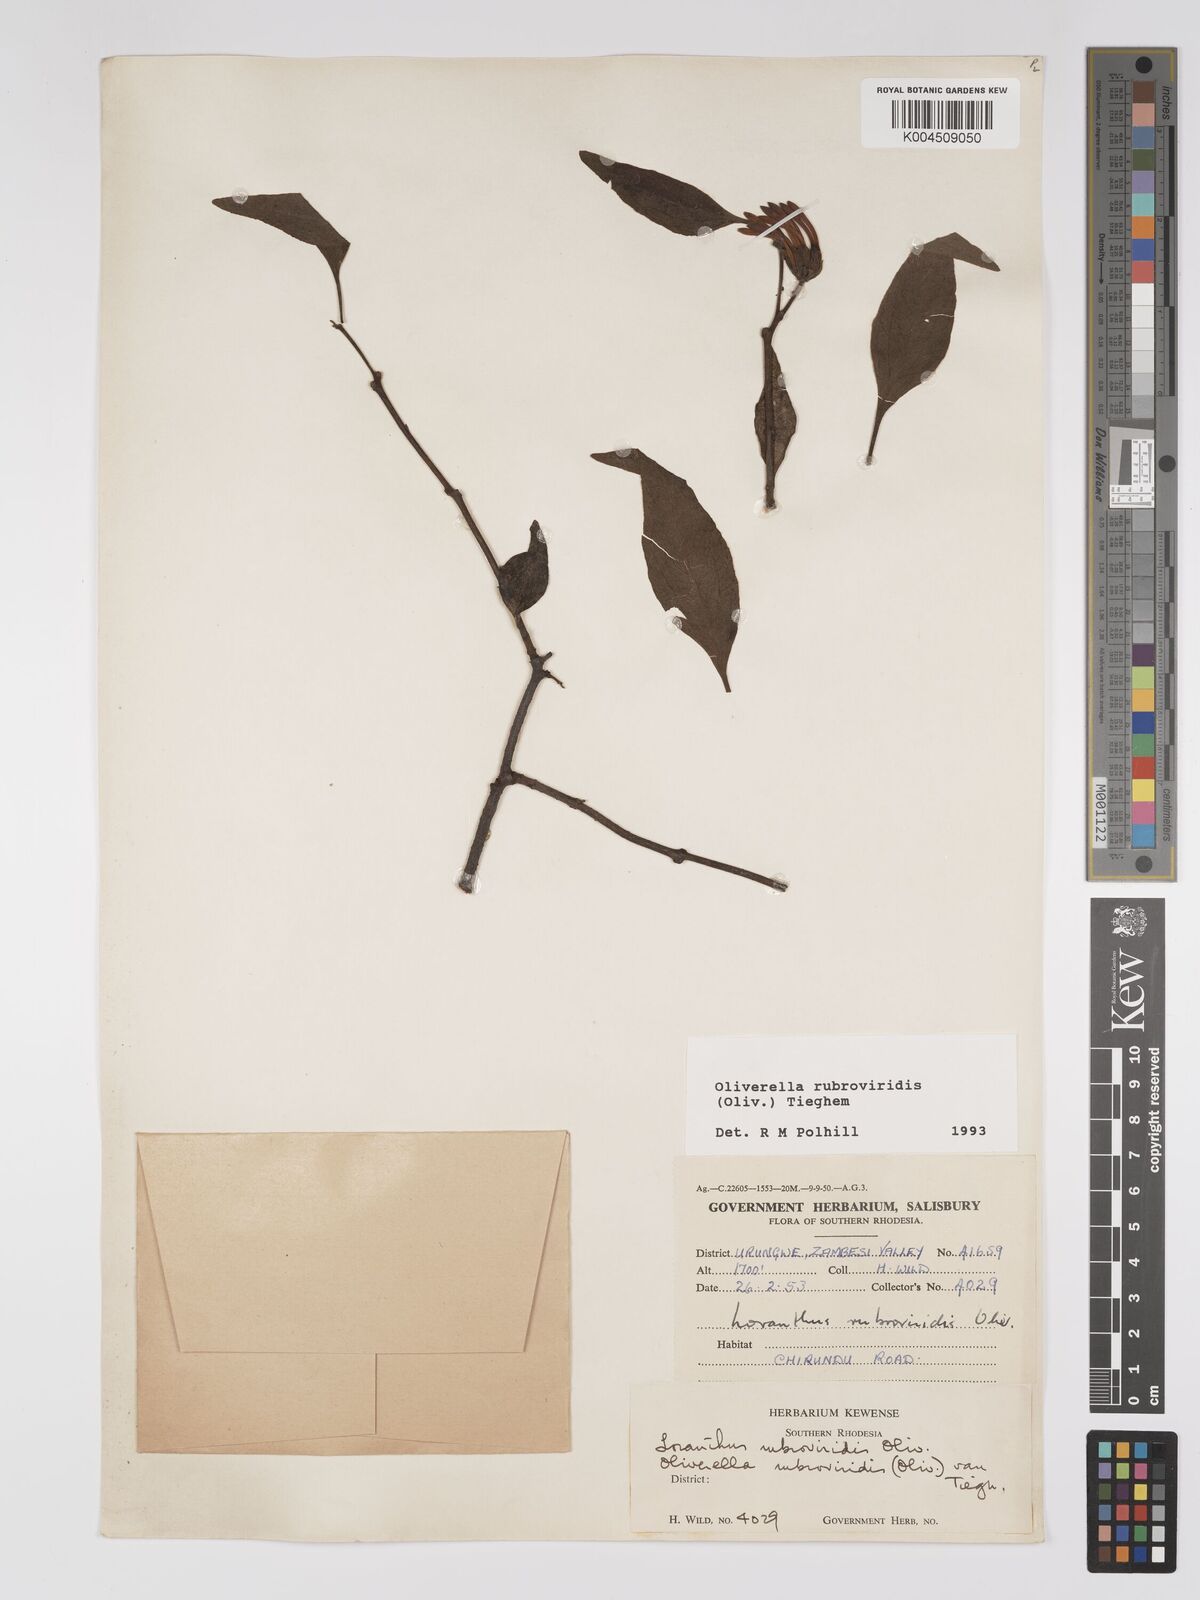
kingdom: Plantae
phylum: Tracheophyta
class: Magnoliopsida
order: Santalales
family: Loranthaceae
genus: Oliverella
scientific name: Oliverella rubroviridis
